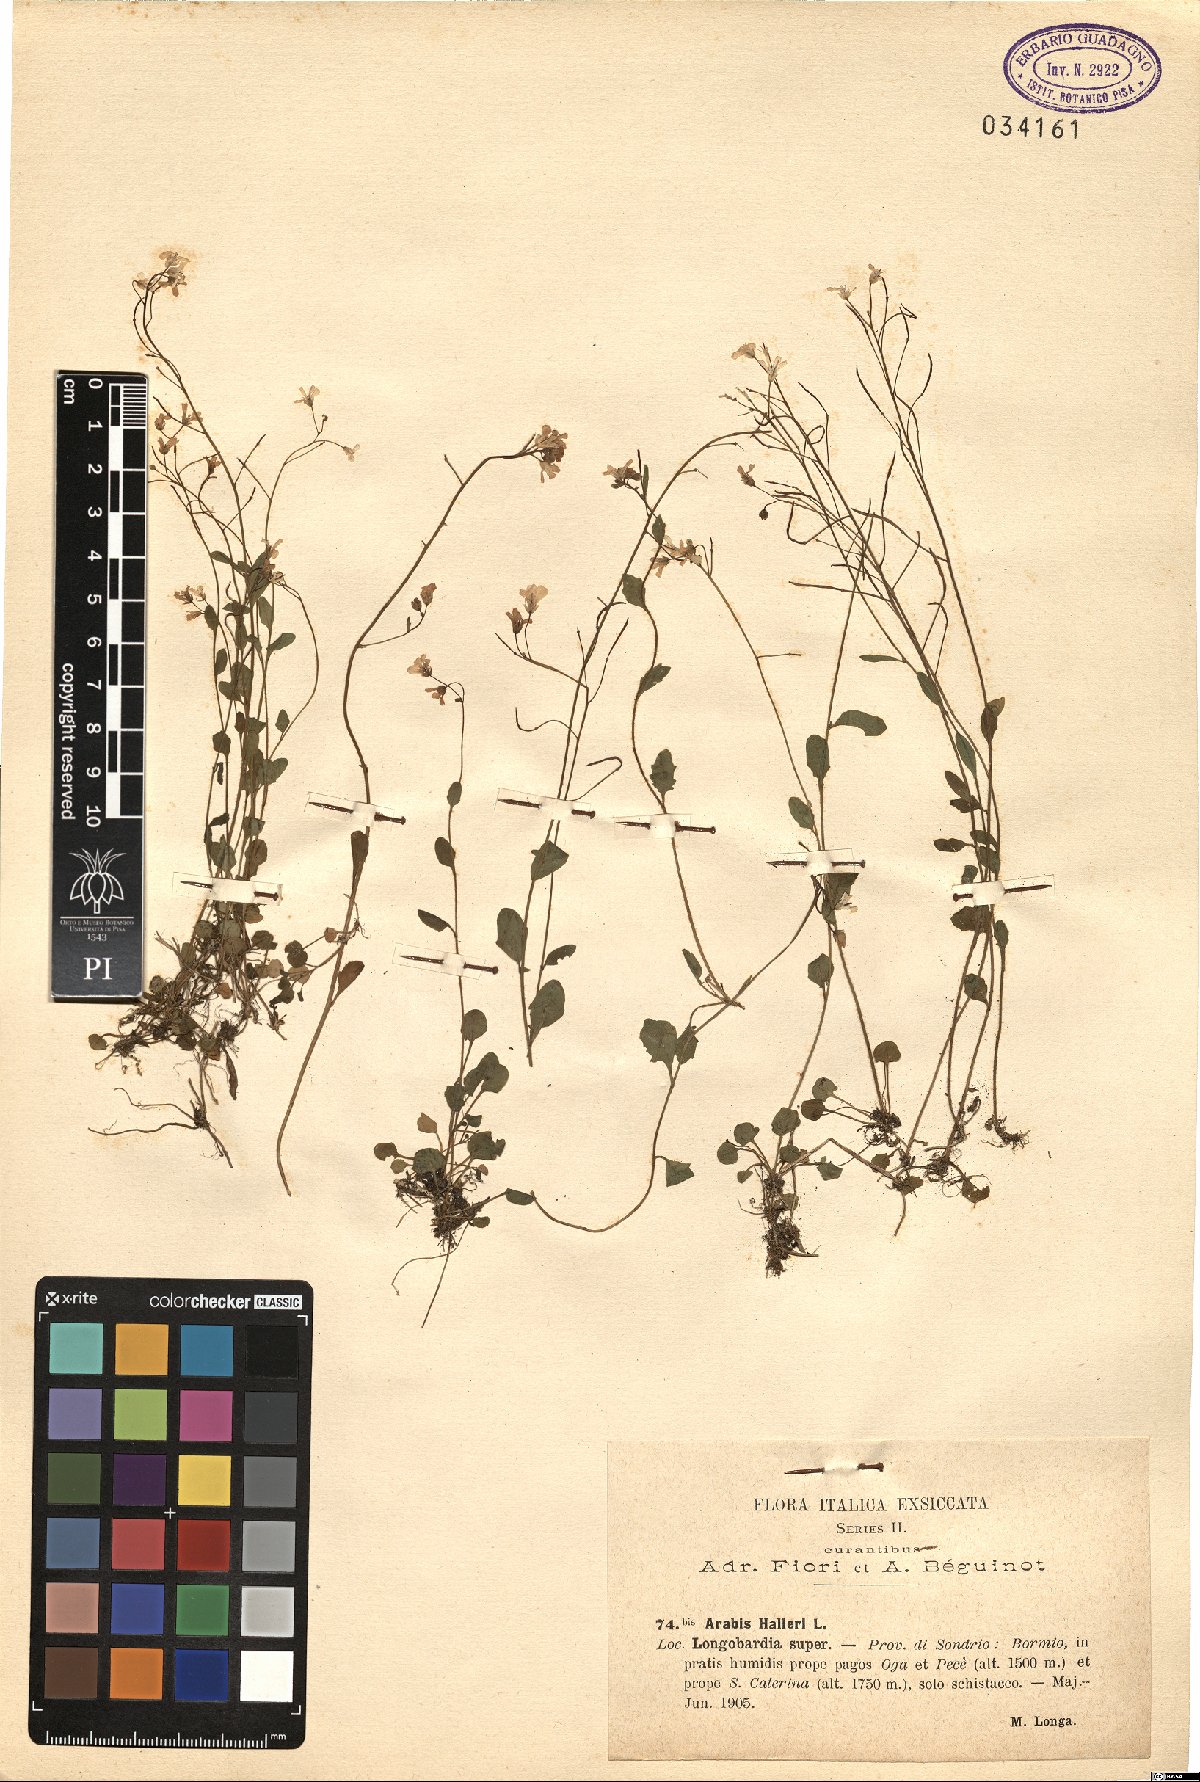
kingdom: Plantae
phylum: Tracheophyta
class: Magnoliopsida
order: Brassicales
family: Brassicaceae
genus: Arabidopsis
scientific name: Arabidopsis halleri
